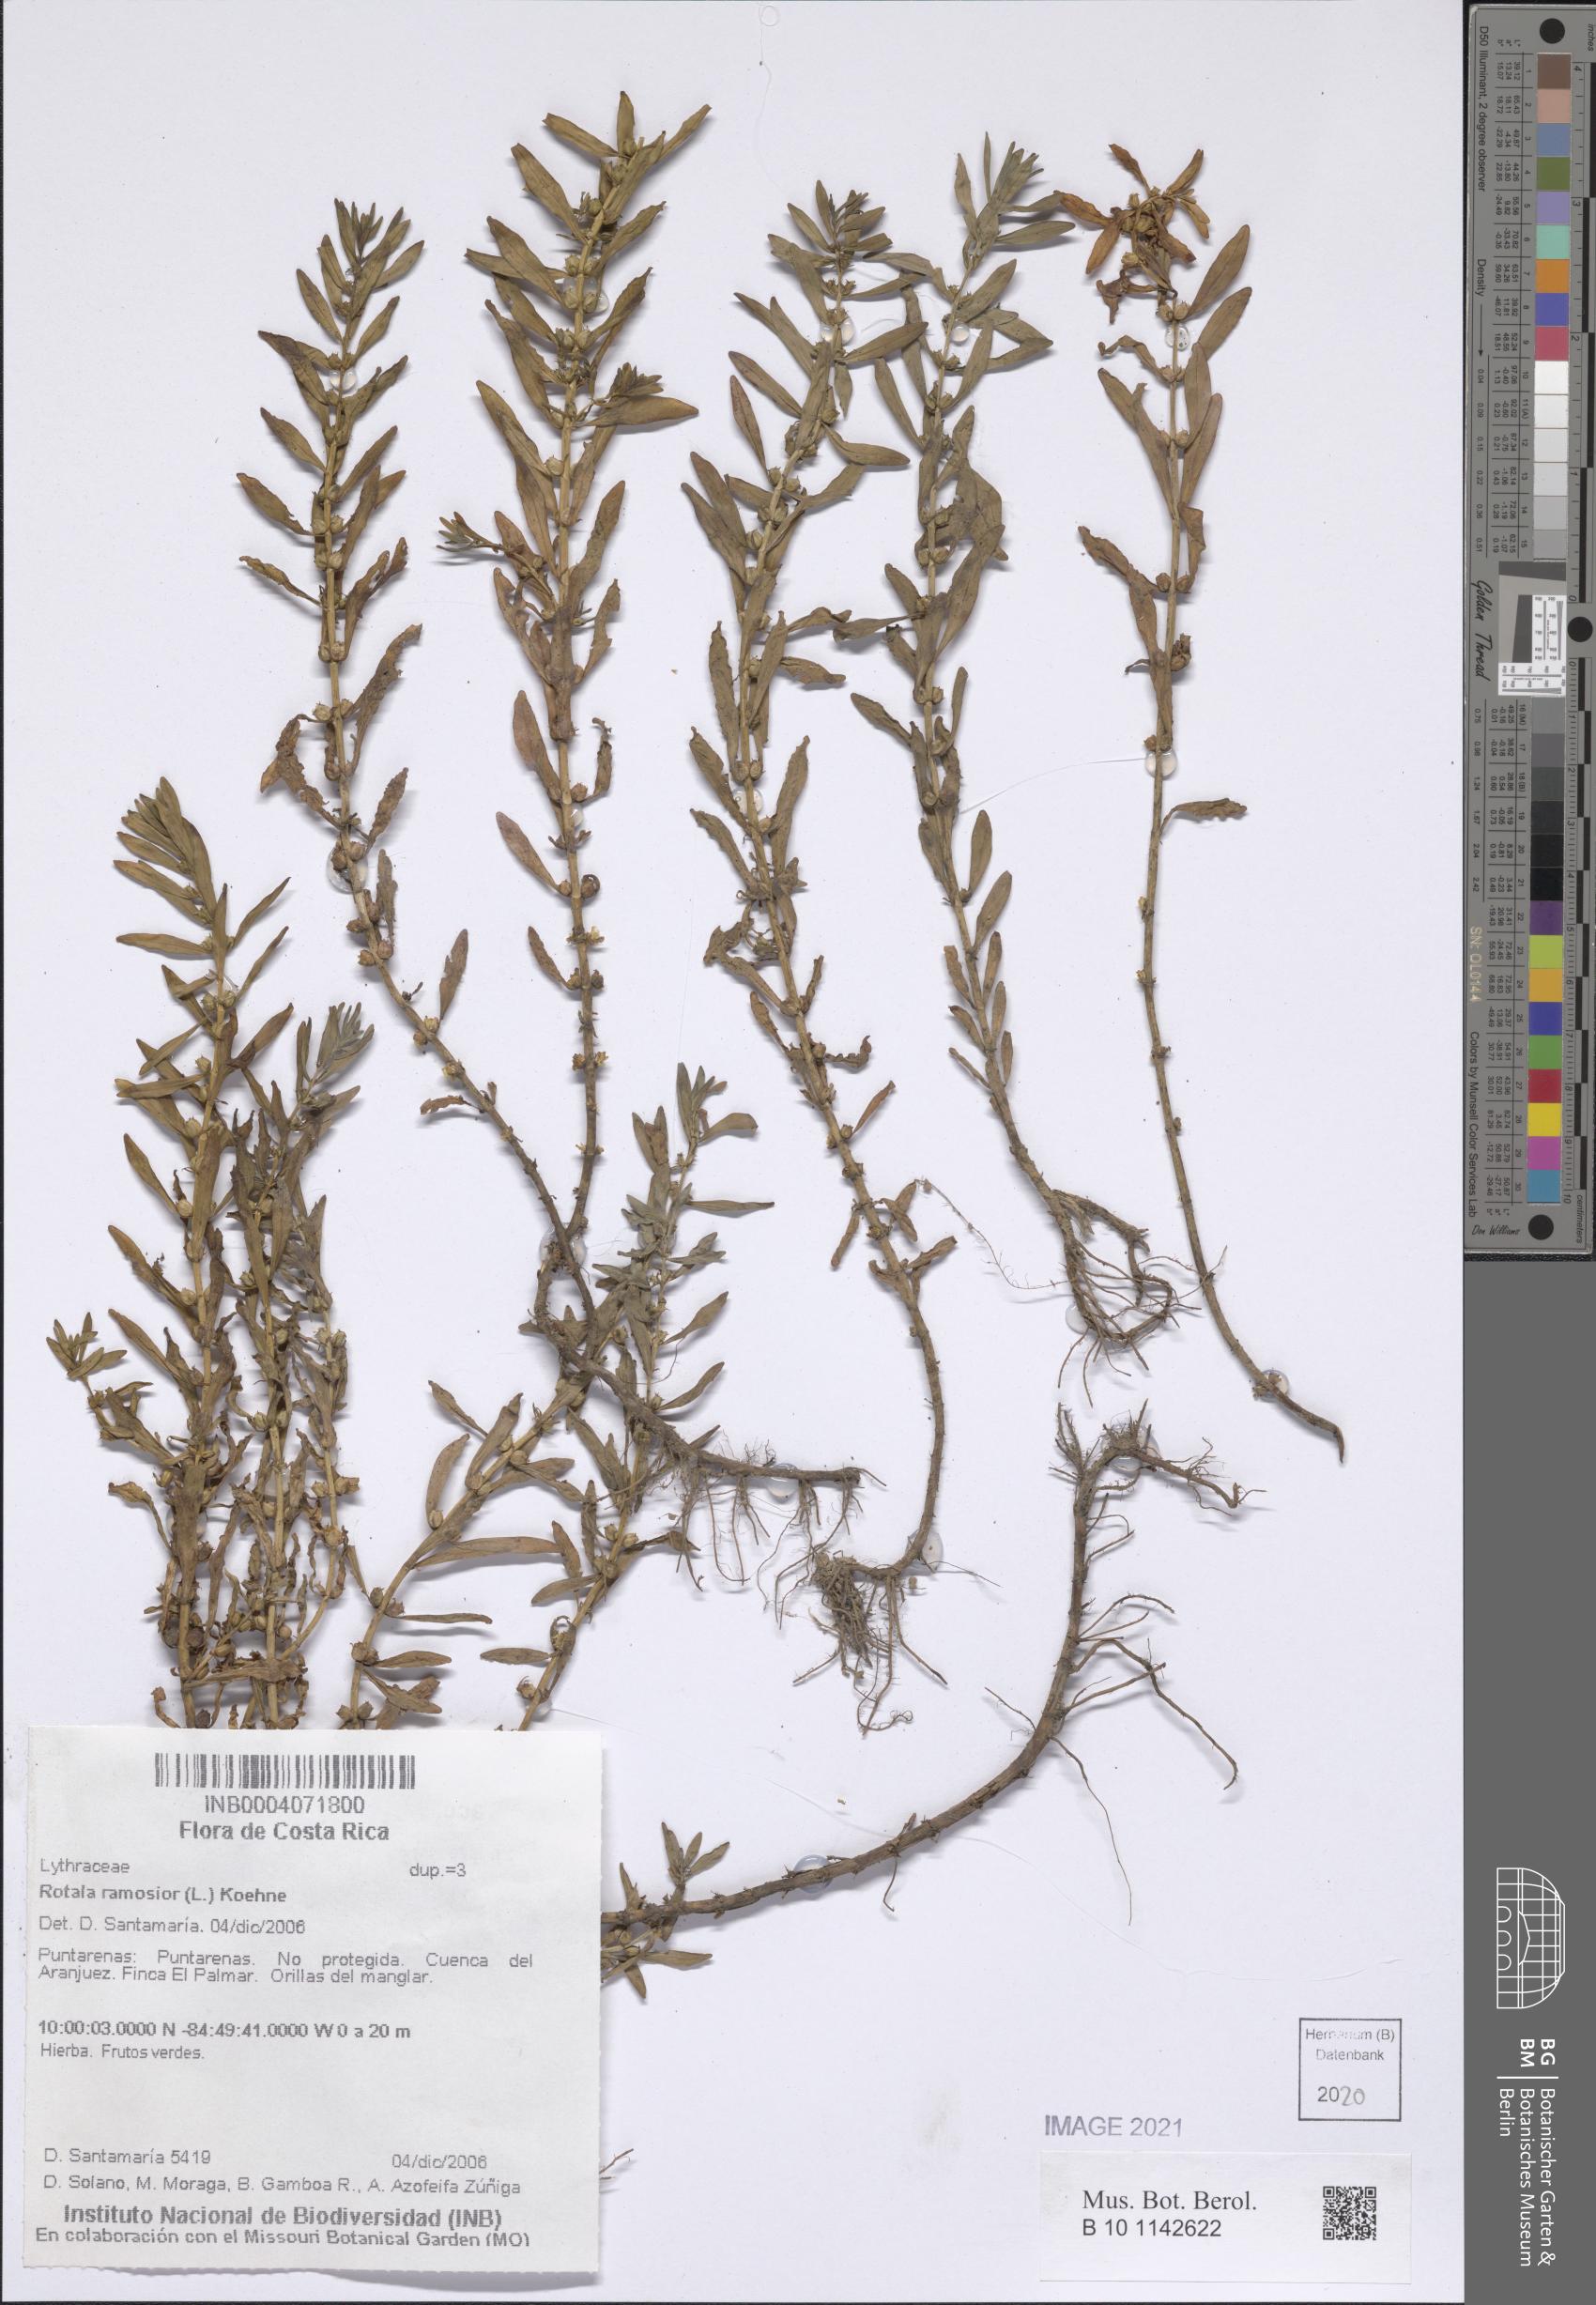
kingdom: Plantae
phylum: Tracheophyta
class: Magnoliopsida
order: Myrtales
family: Lythraceae
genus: Rotala
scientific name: Rotala ramosior
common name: Lowland rotala
